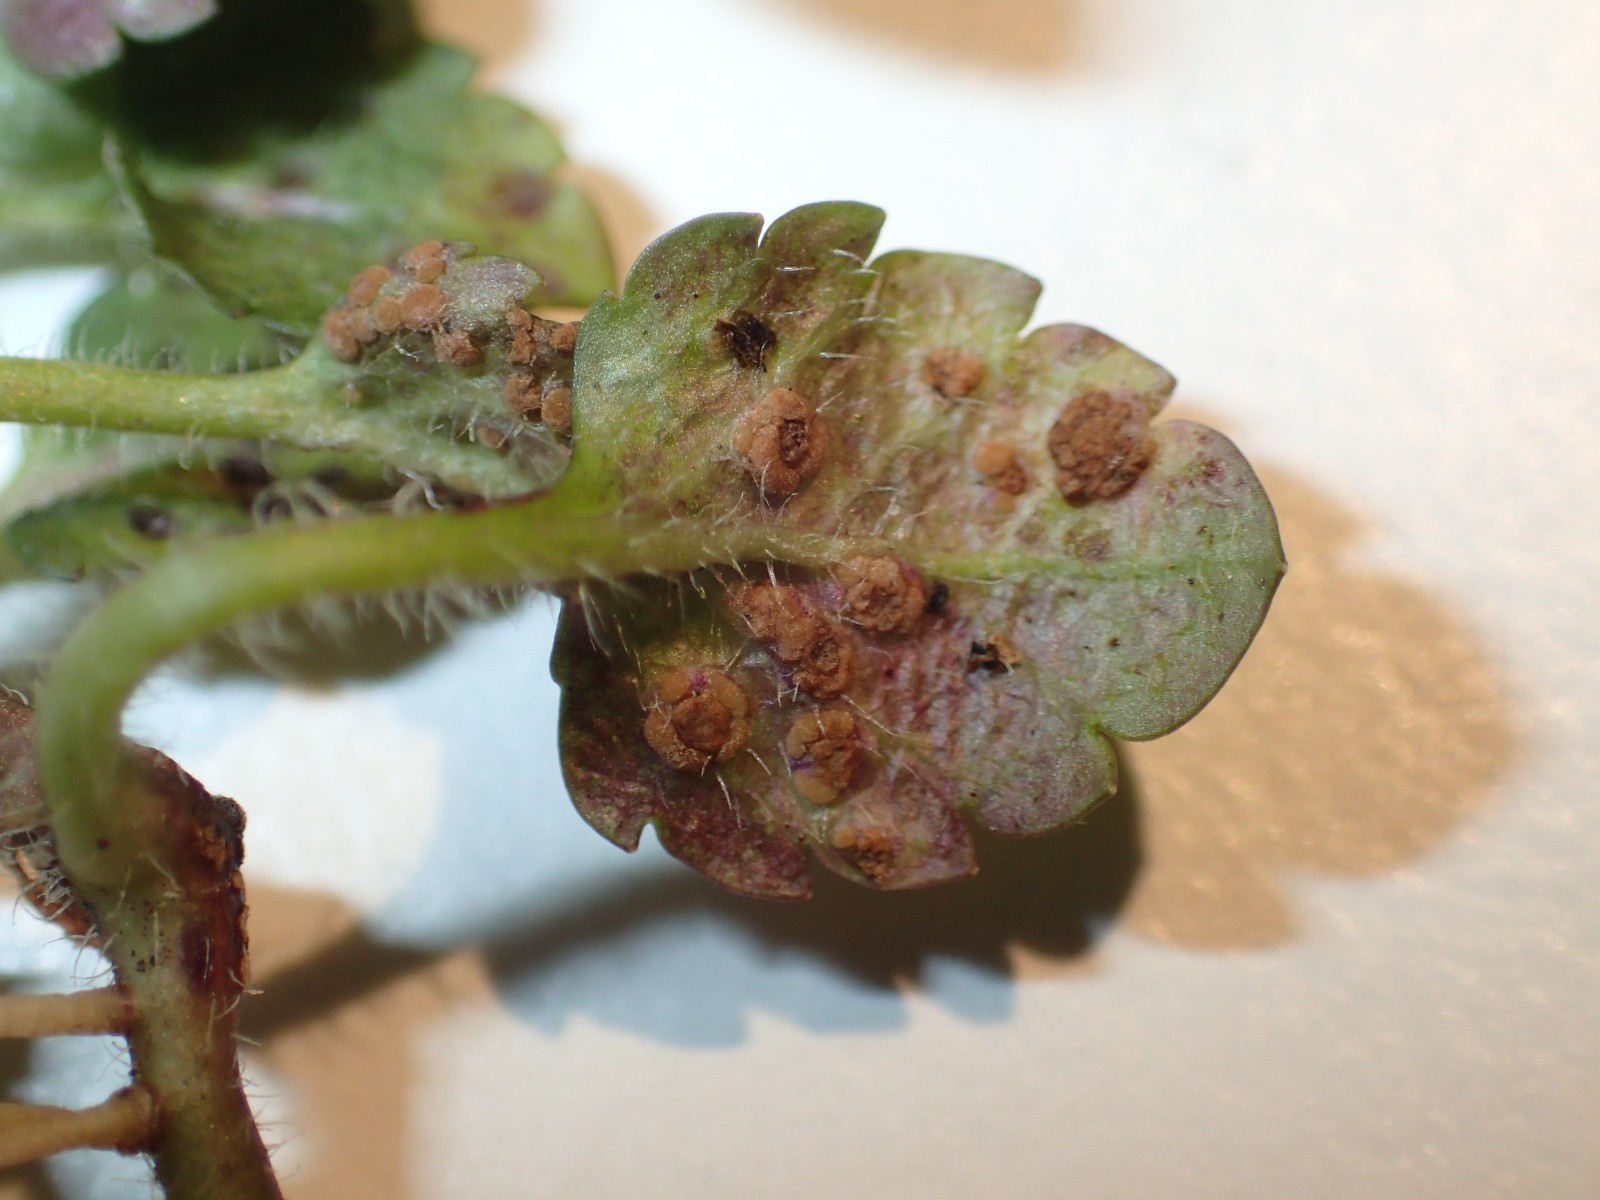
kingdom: Fungi
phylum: Basidiomycota
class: Pucciniomycetes
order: Pucciniales
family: Pucciniaceae
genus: Puccinia
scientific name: Puccinia albulensis
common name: Alpine veronica rust
